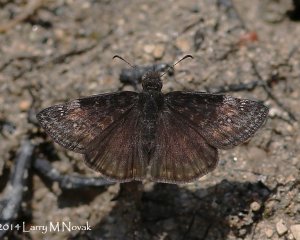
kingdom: Animalia
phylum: Arthropoda
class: Insecta
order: Lepidoptera
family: Hesperiidae
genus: Gesta
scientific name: Gesta
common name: Wild Indigo Duskywing
